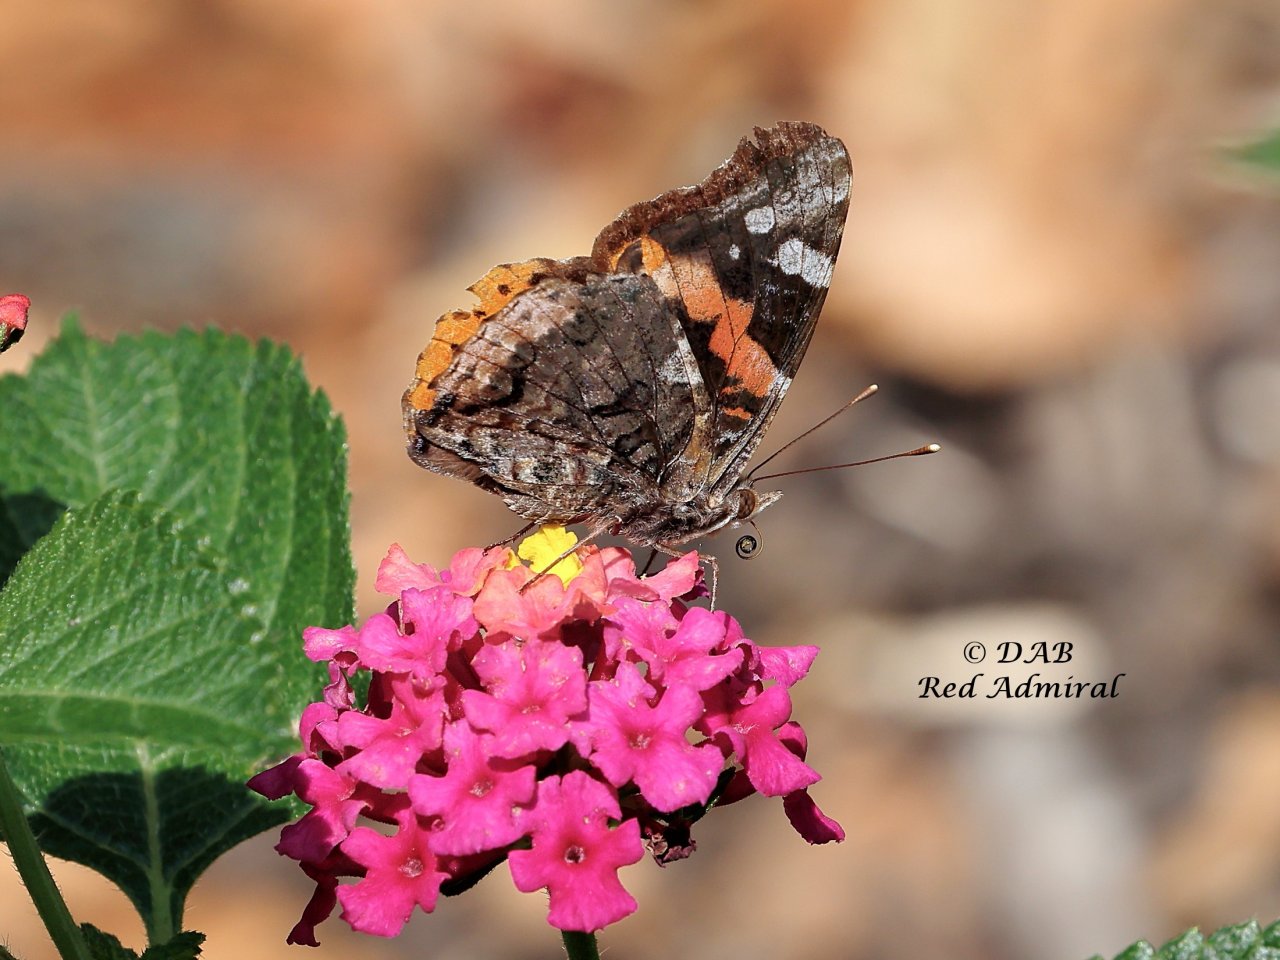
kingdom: Animalia
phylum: Arthropoda
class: Insecta
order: Lepidoptera
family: Nymphalidae
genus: Vanessa
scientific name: Vanessa atalanta
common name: Red Admiral
